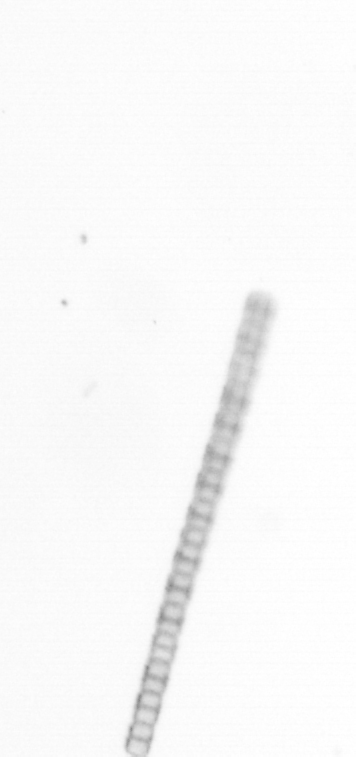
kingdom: Chromista
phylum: Ochrophyta
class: Bacillariophyceae
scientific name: Bacillariophyceae
